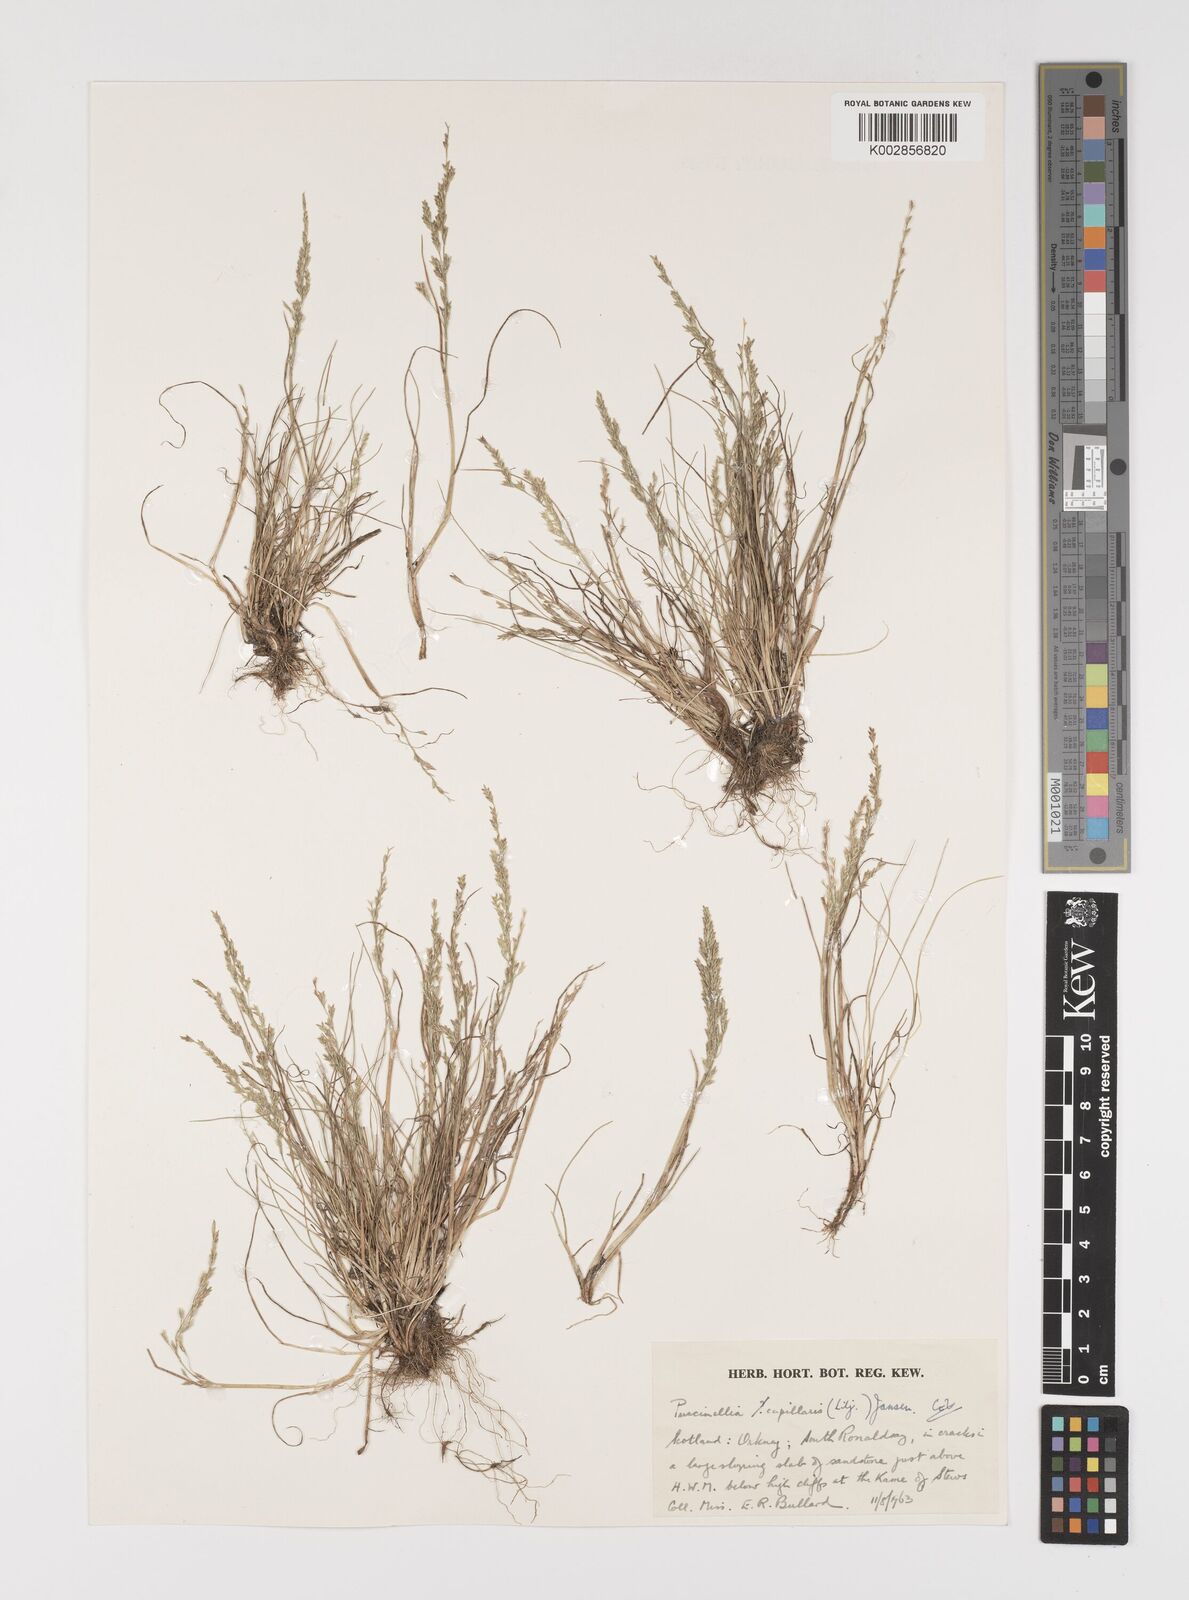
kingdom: Plantae
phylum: Tracheophyta
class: Liliopsida
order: Poales
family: Poaceae
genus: Puccinellia
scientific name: Puccinellia distans
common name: Weeping alkaligrass
